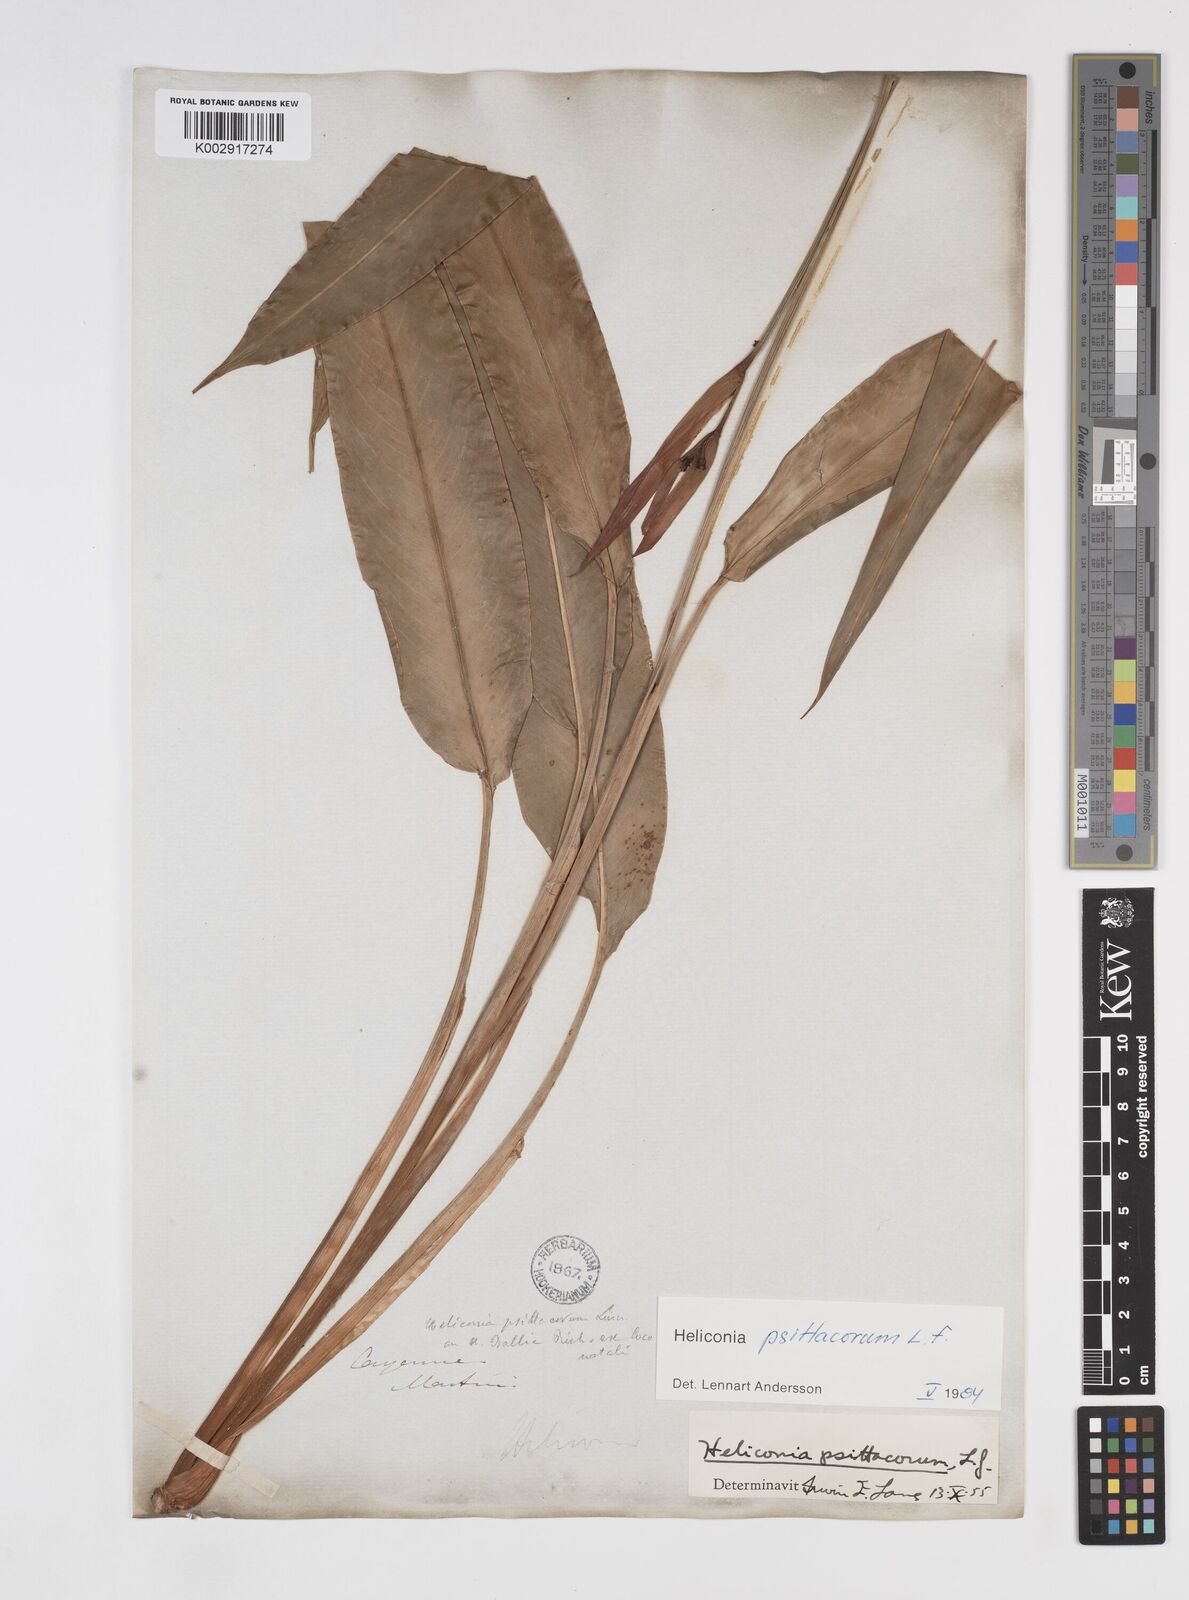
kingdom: Plantae
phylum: Tracheophyta
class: Liliopsida
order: Zingiberales
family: Heliconiaceae
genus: Heliconia
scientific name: Heliconia psittacorum
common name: Parrot's-flower
